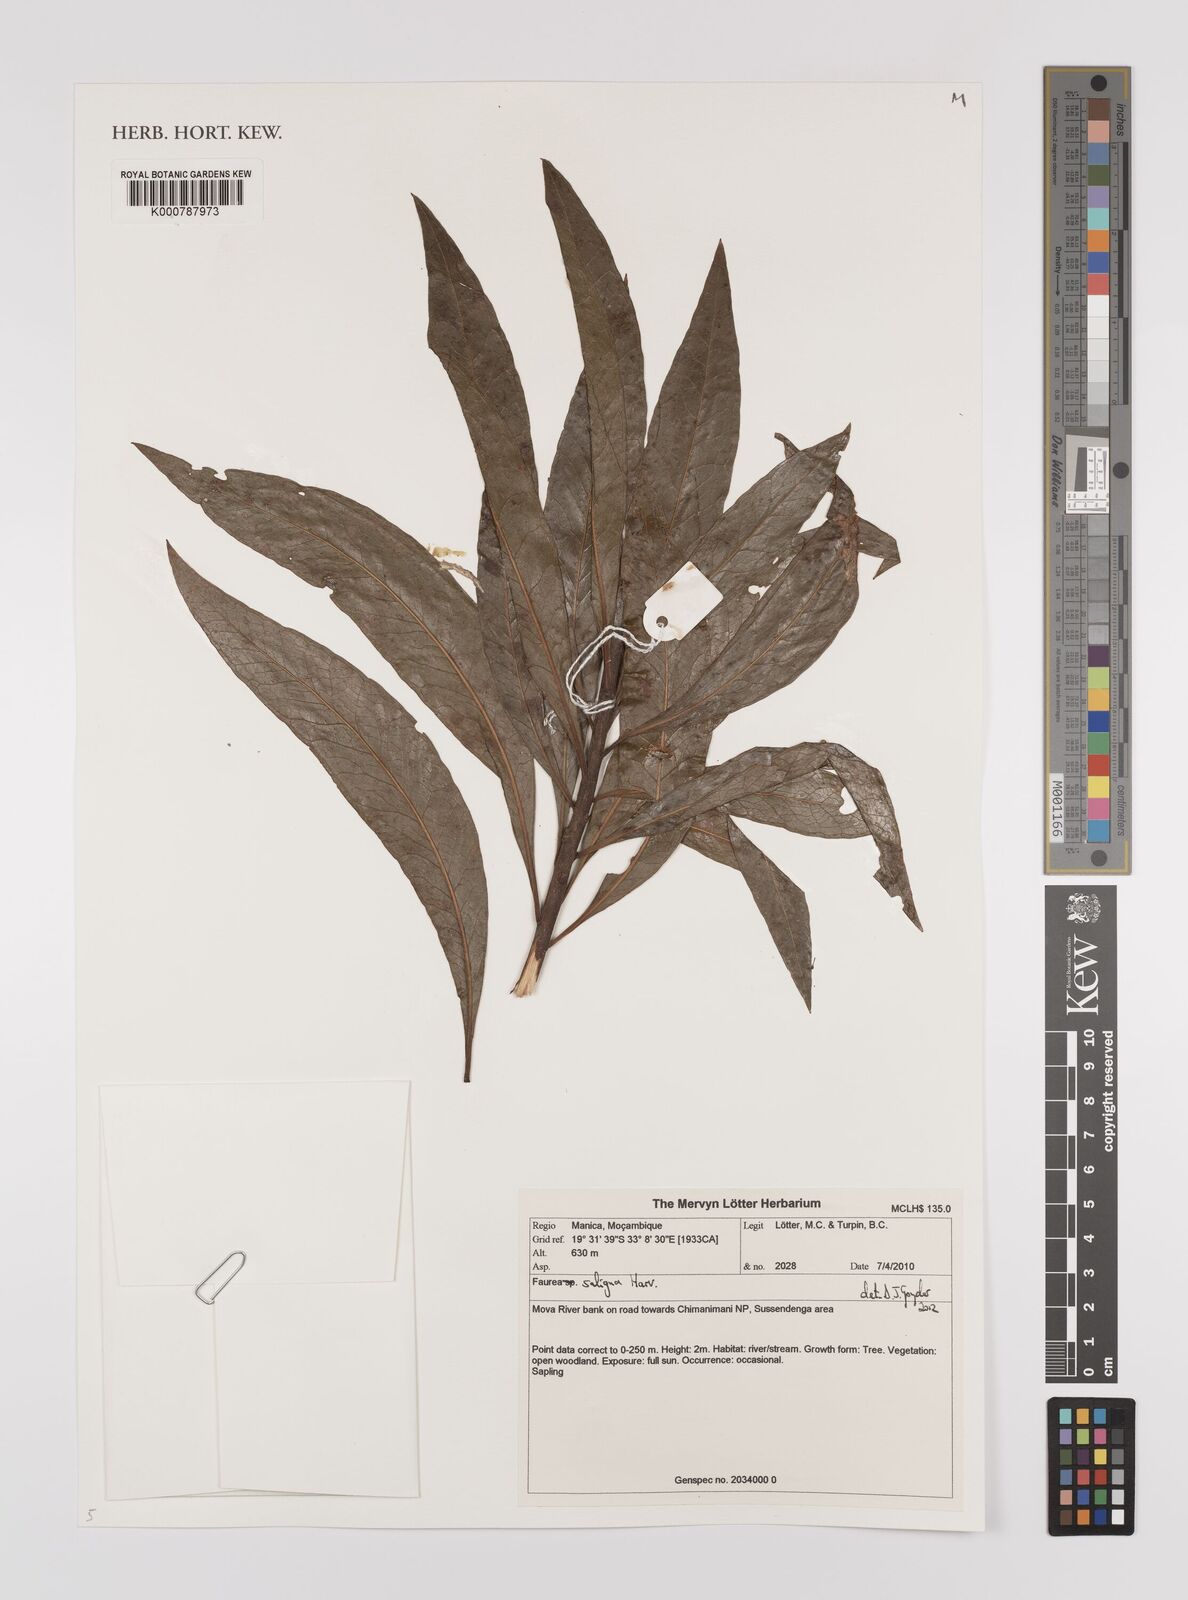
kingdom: Plantae
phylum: Tracheophyta
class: Magnoliopsida
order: Proteales
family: Proteaceae
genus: Faurea
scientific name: Faurea saligna
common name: African bean
